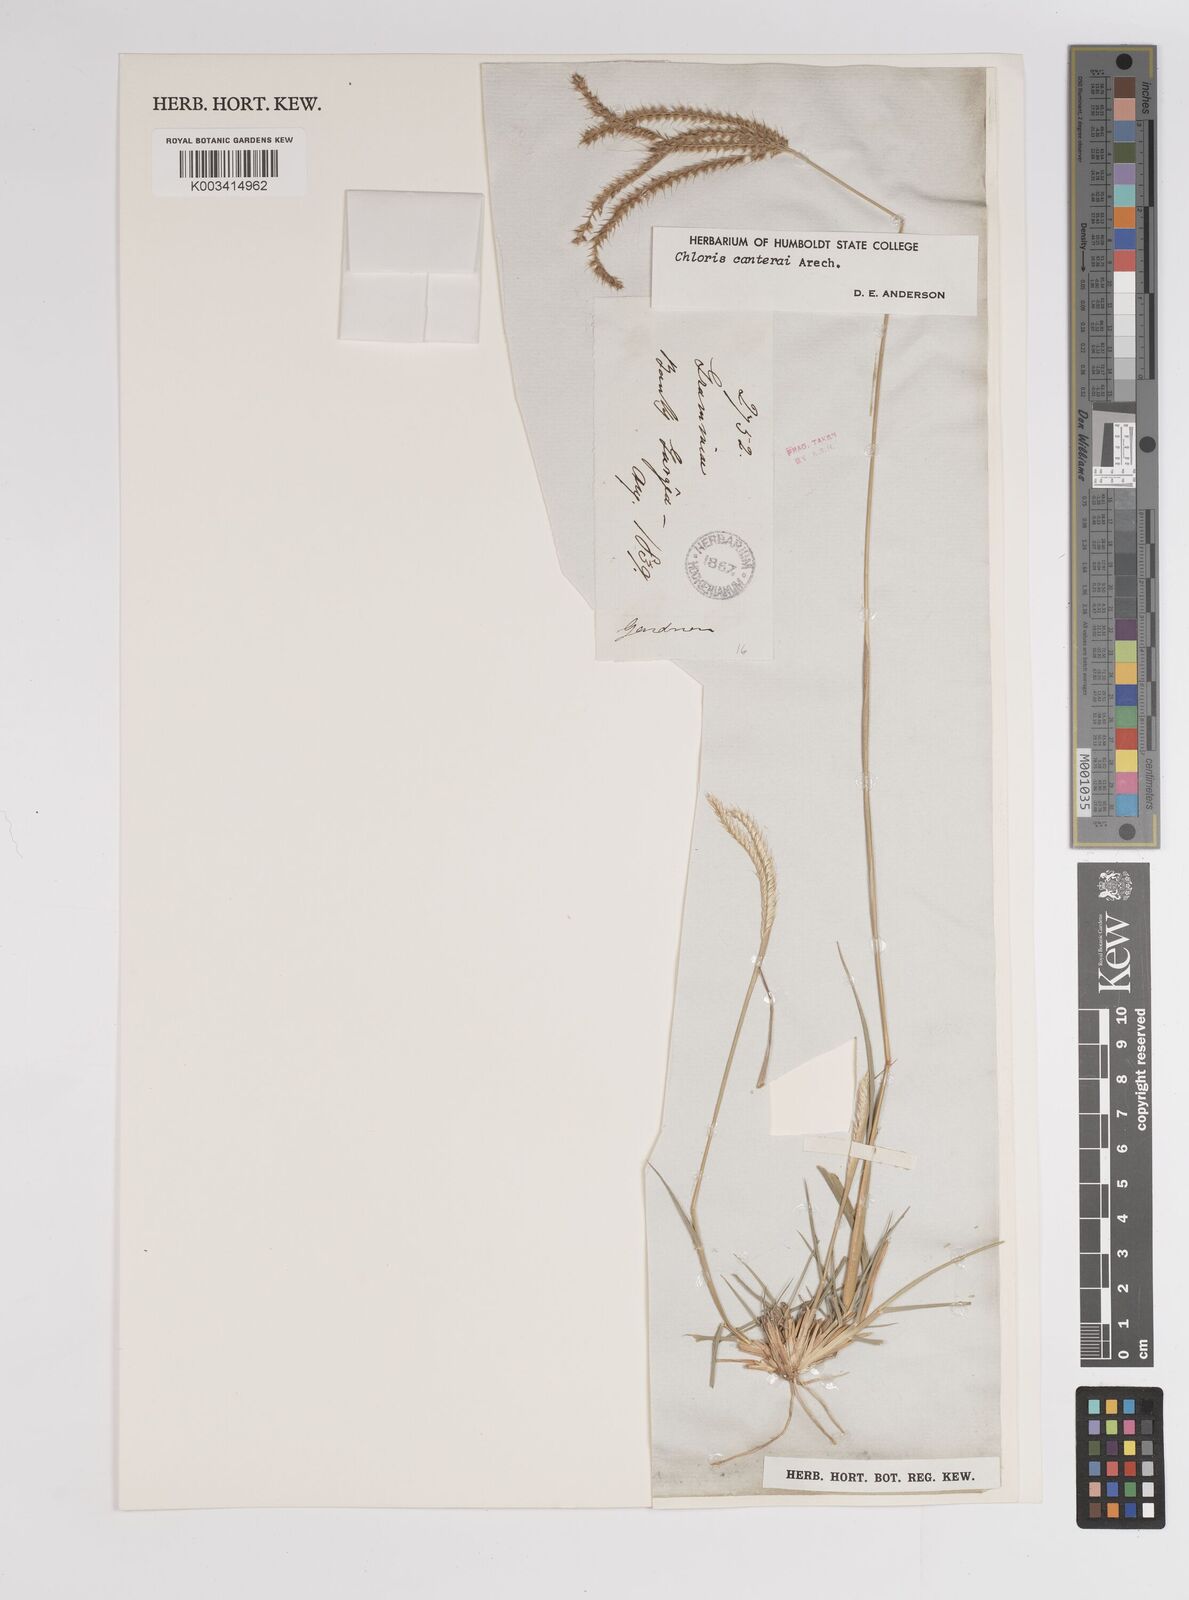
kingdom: Plantae
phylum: Tracheophyta
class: Liliopsida
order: Poales
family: Poaceae
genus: Stapfochloa
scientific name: Stapfochloa canterae
